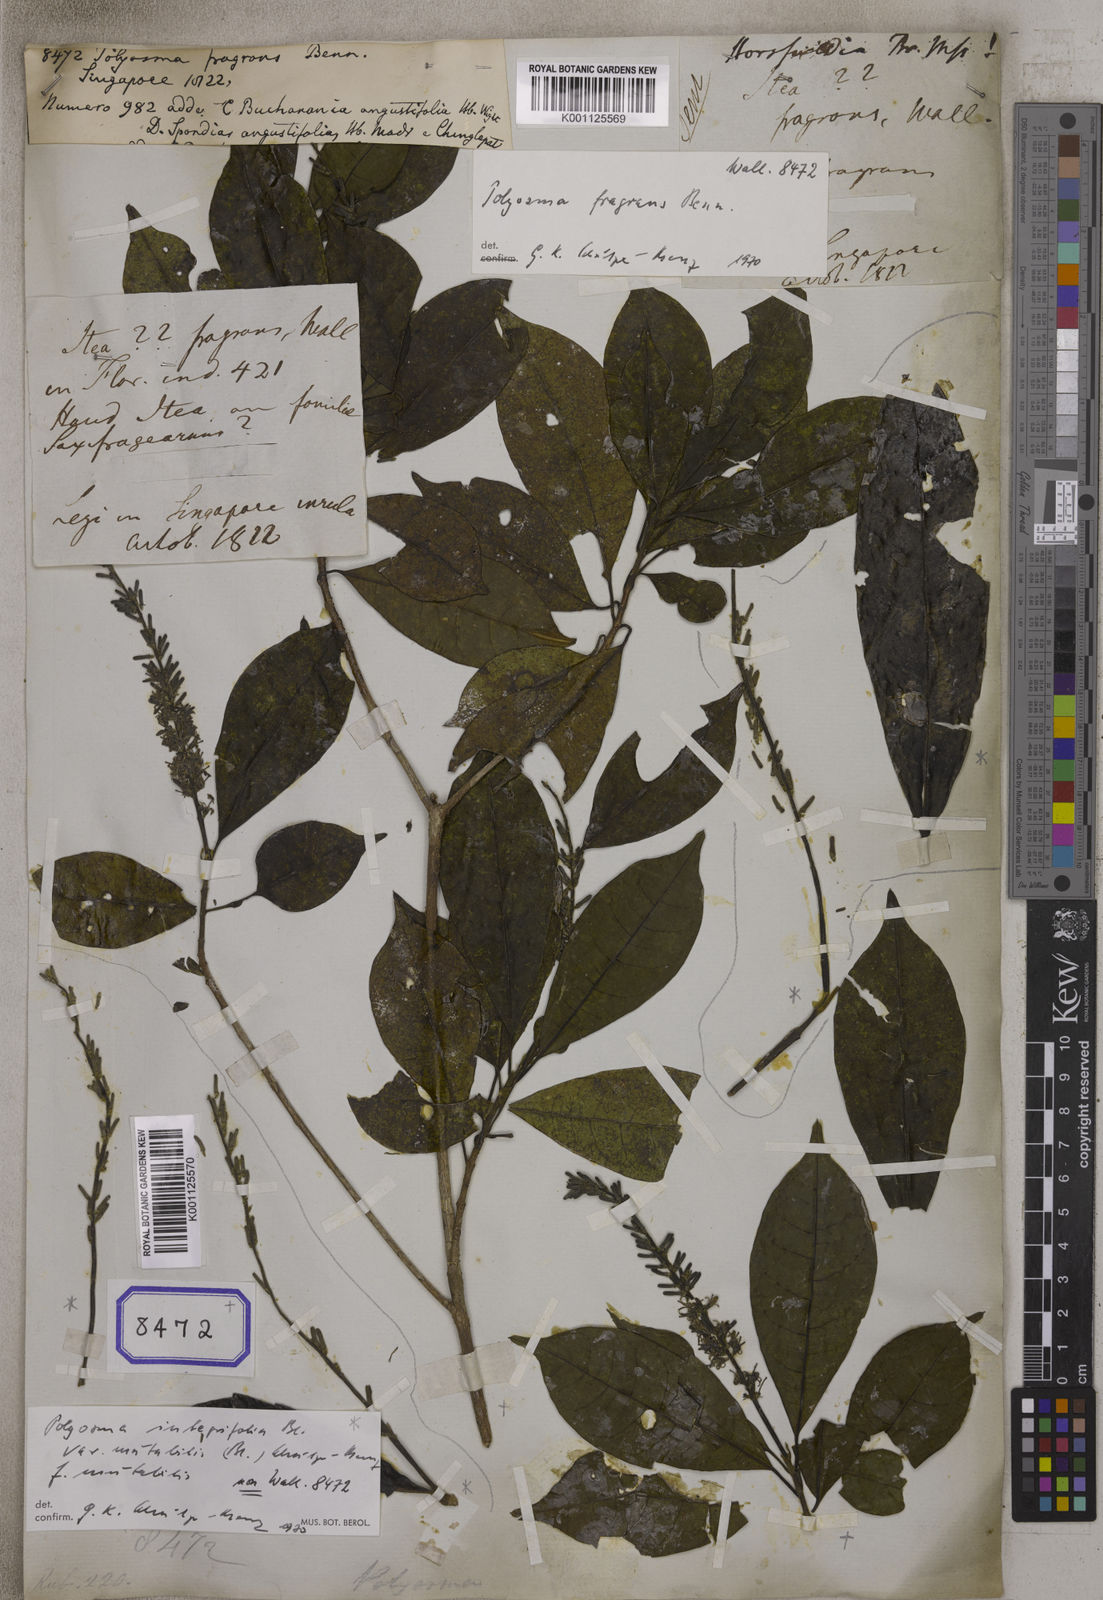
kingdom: Plantae
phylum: Tracheophyta
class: Magnoliopsida
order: Escalloniales
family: Escalloniaceae
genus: Polyosma
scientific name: Polyosma fragrans
